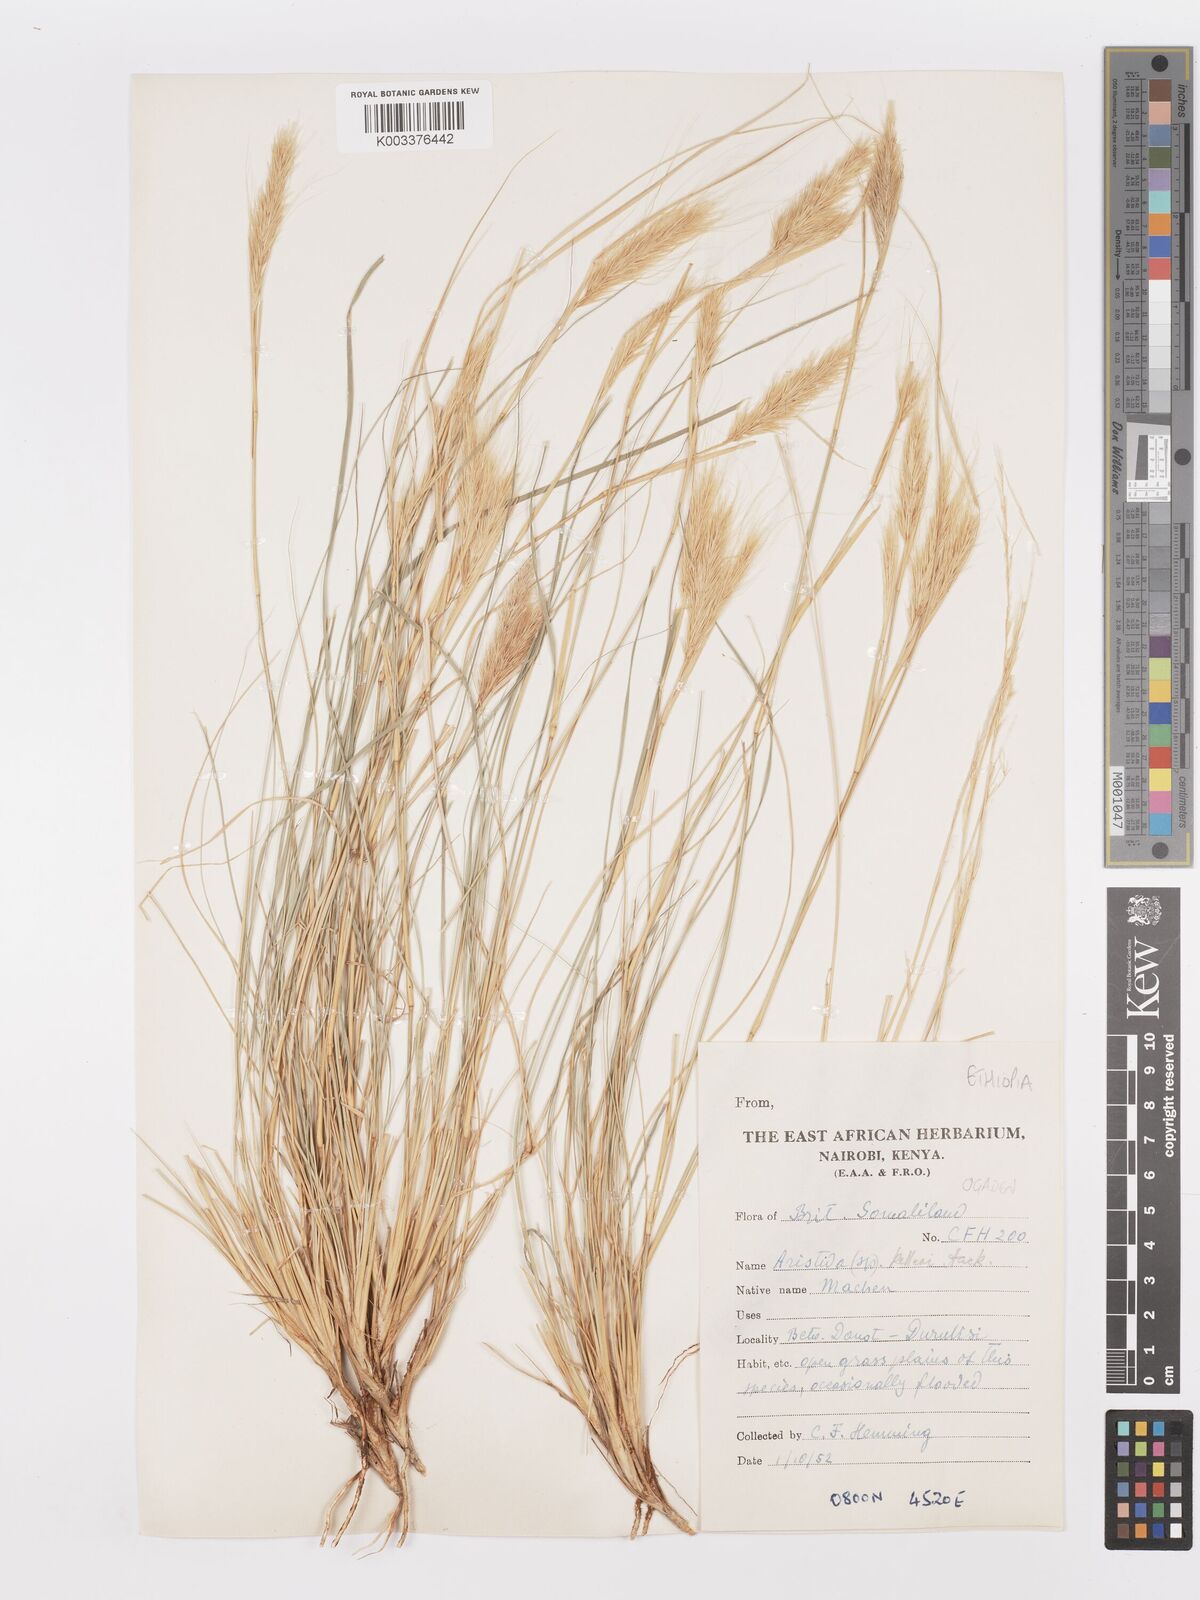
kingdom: Plantae
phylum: Tracheophyta
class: Liliopsida
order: Poales
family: Poaceae
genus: Aristida
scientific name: Aristida kelleri
